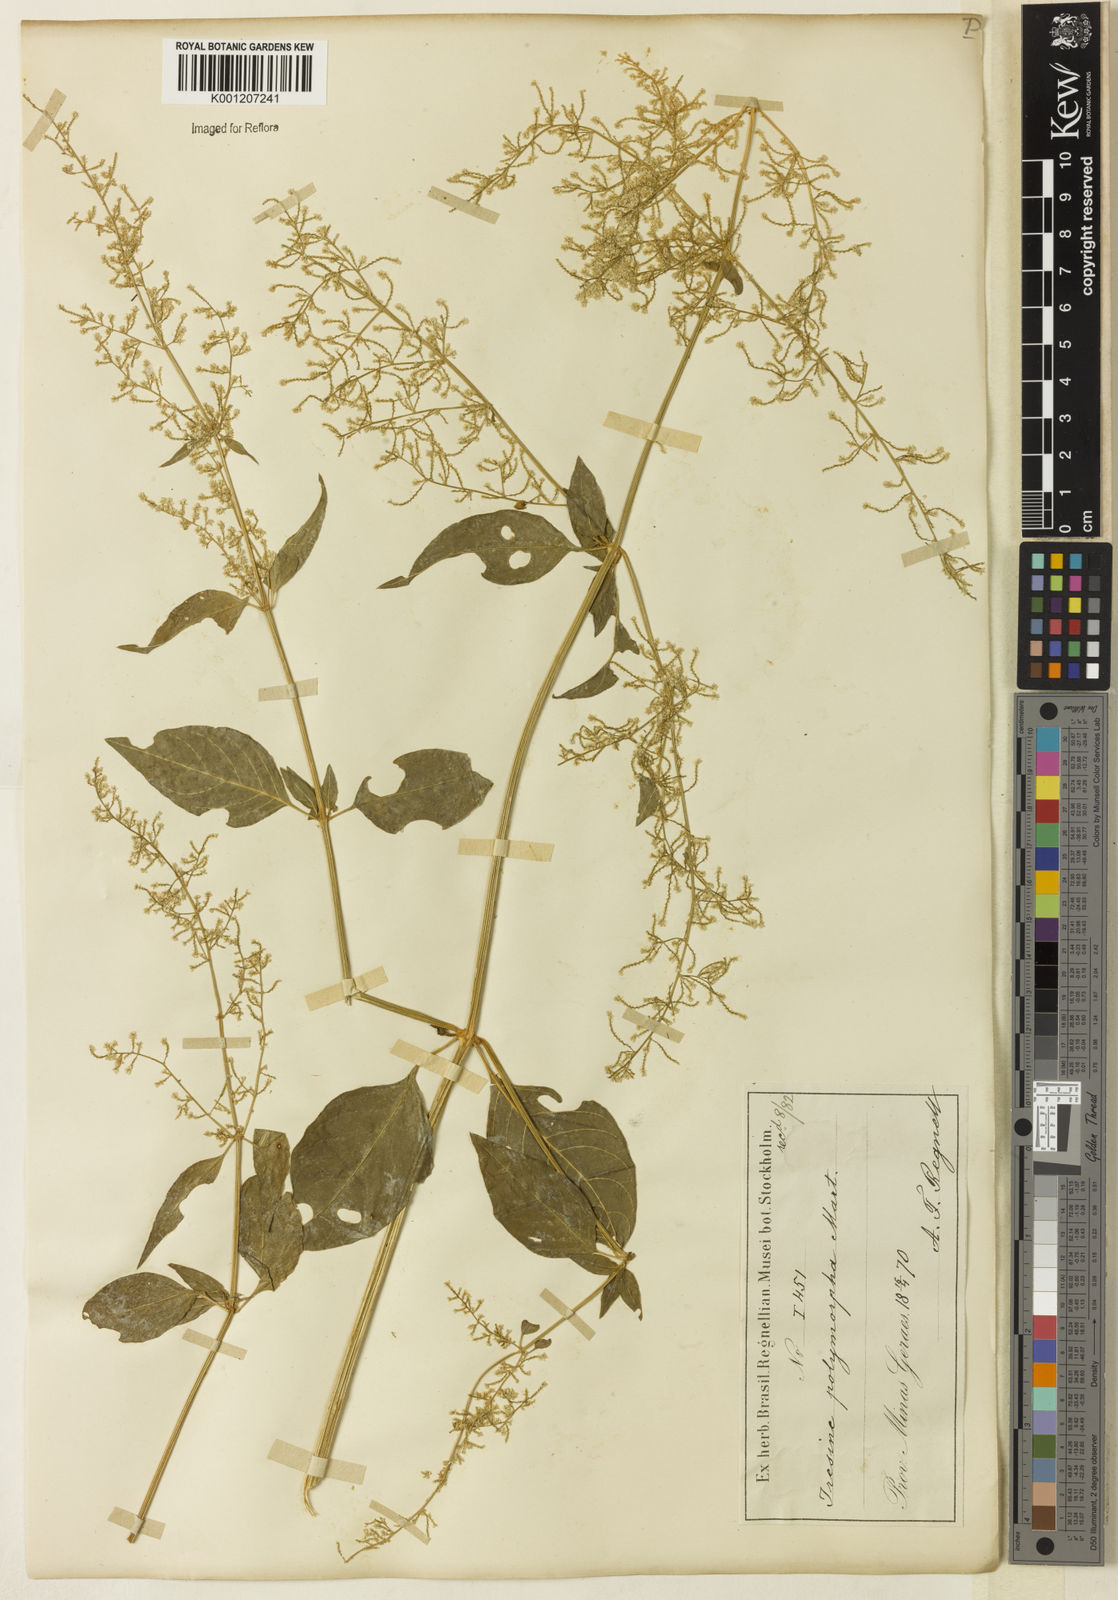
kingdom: Plantae
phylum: Tracheophyta
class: Magnoliopsida
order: Caryophyllales
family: Amaranthaceae
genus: Iresine
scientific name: Iresine rhizomatosa
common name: Juda's-bush
